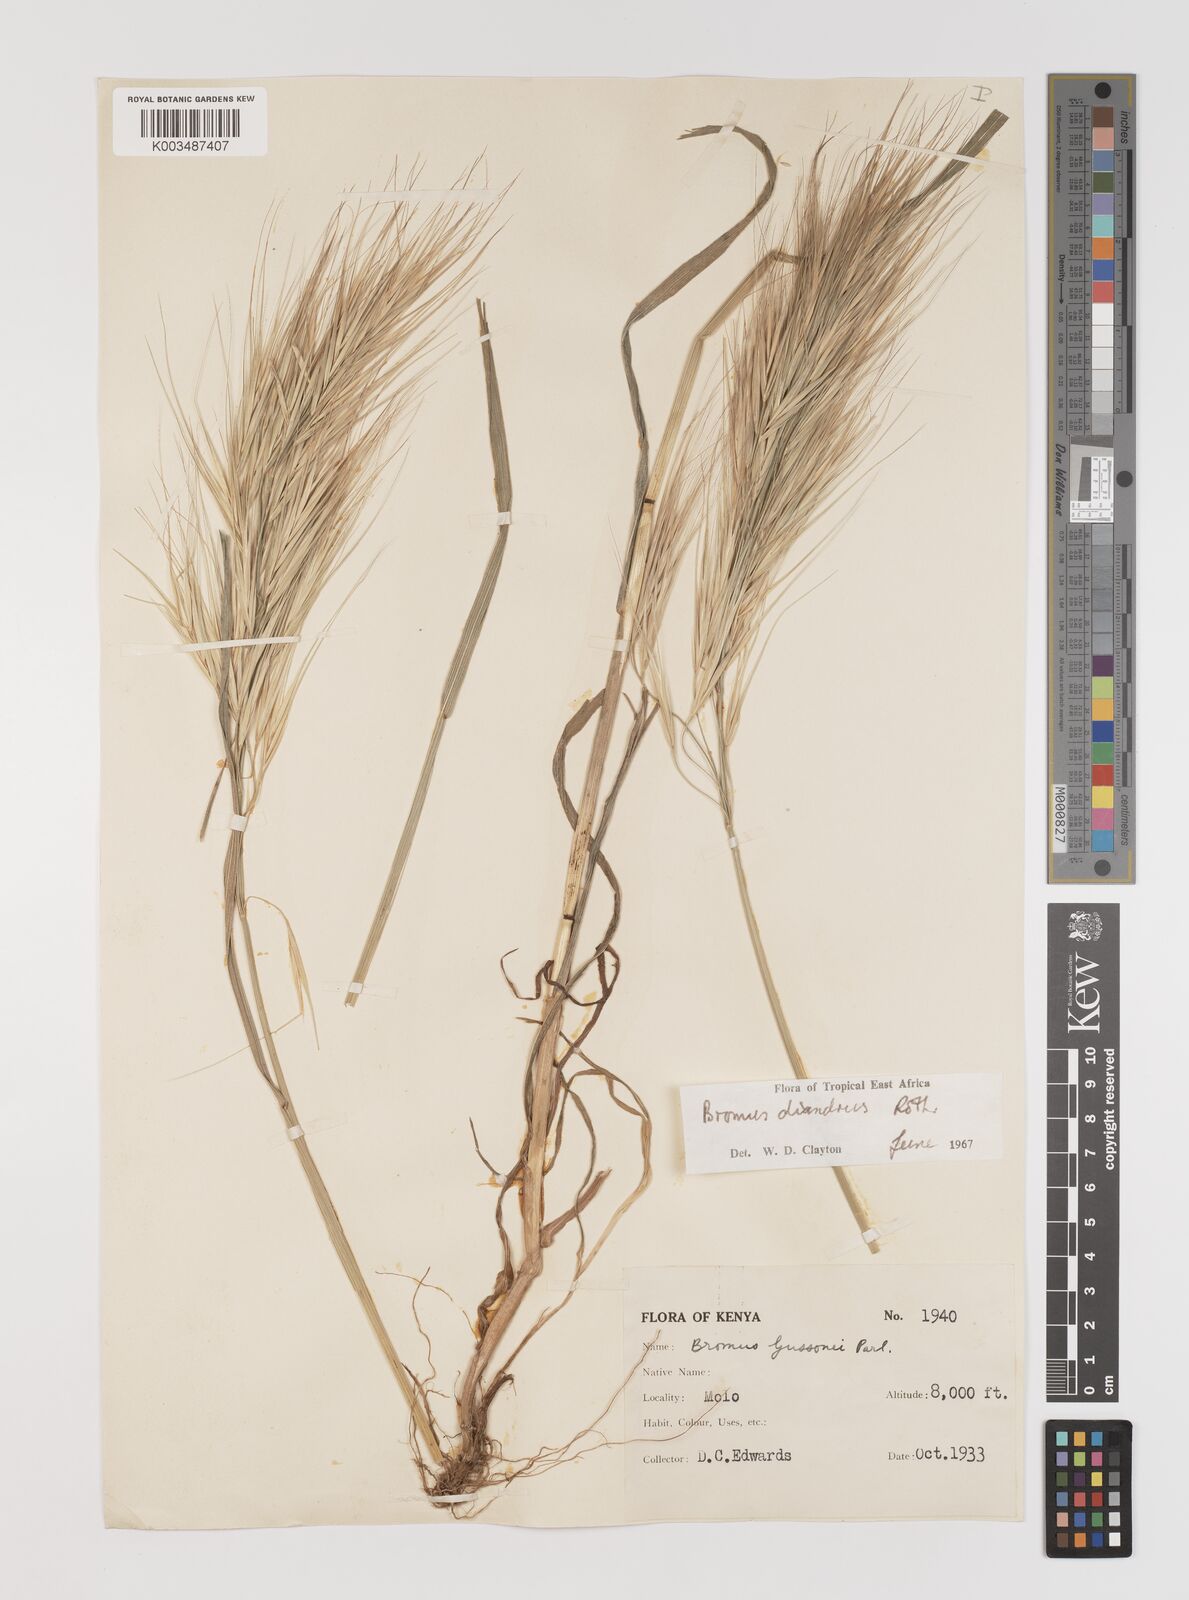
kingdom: Plantae
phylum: Tracheophyta
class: Liliopsida
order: Poales
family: Poaceae
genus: Bromus
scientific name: Bromus diandrus
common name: Ripgut brome
